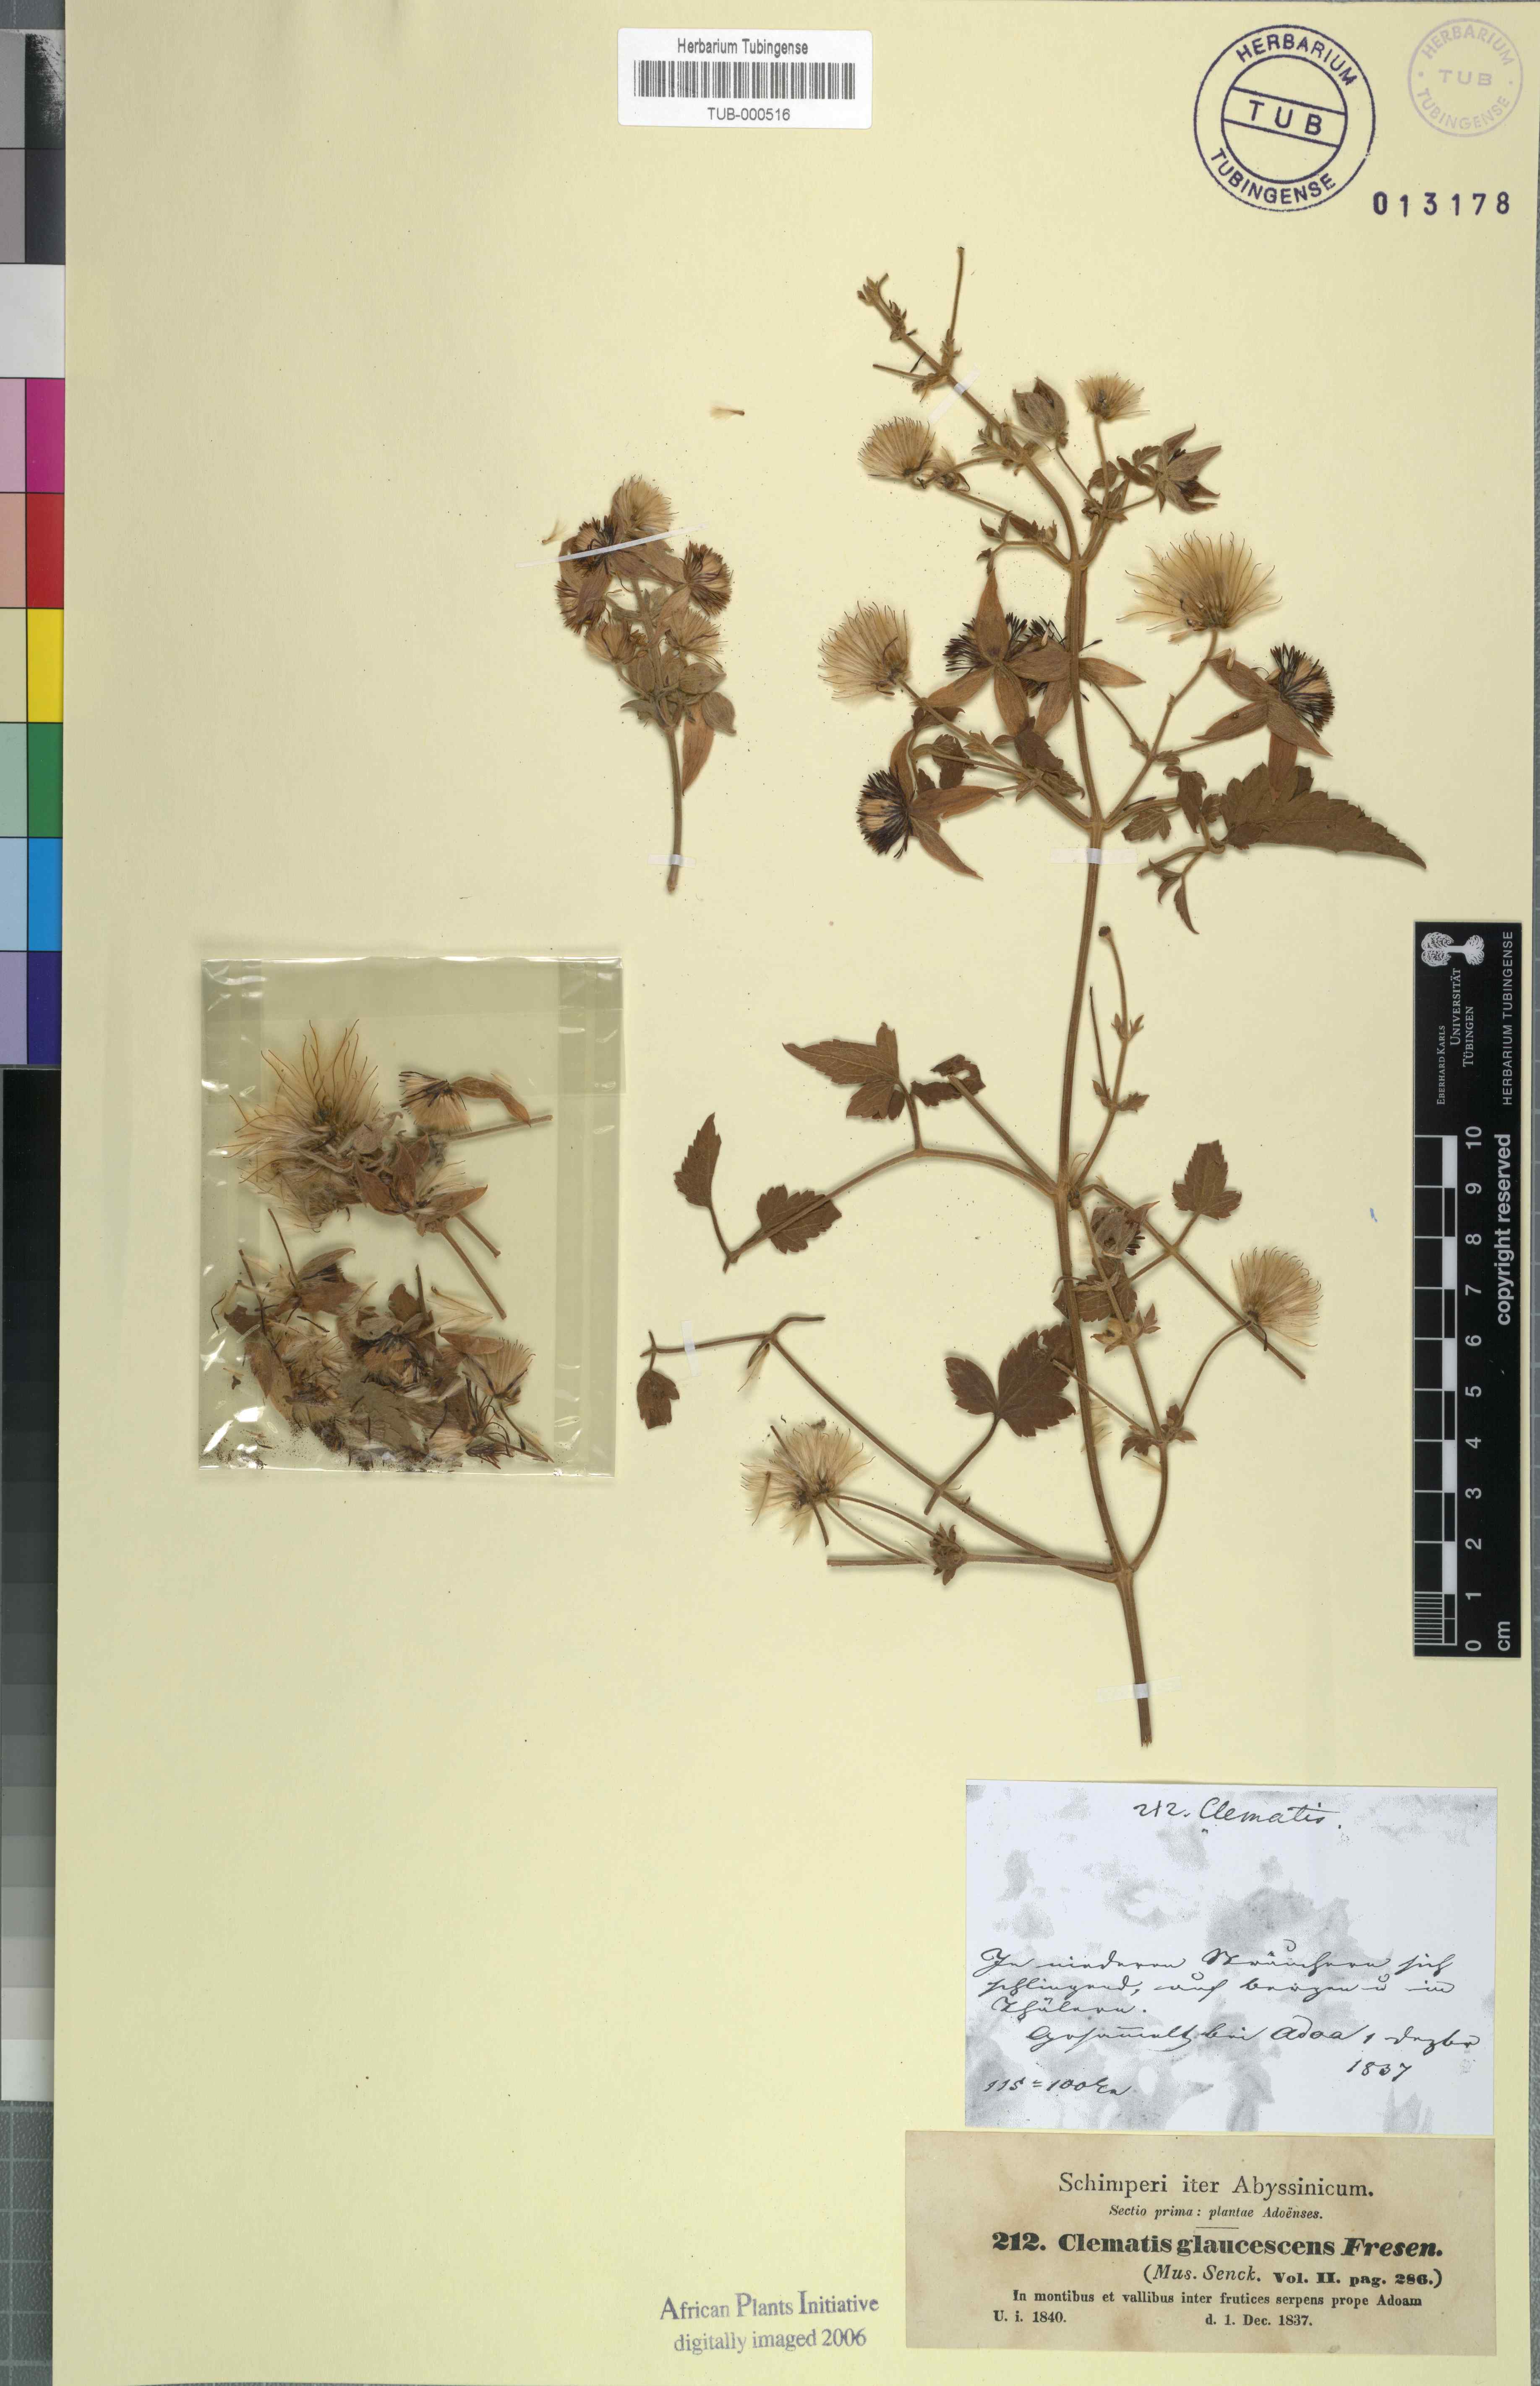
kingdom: Plantae
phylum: Tracheophyta
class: Magnoliopsida
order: Ranunculales
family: Ranunculaceae
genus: Clematis
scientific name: Clematis
